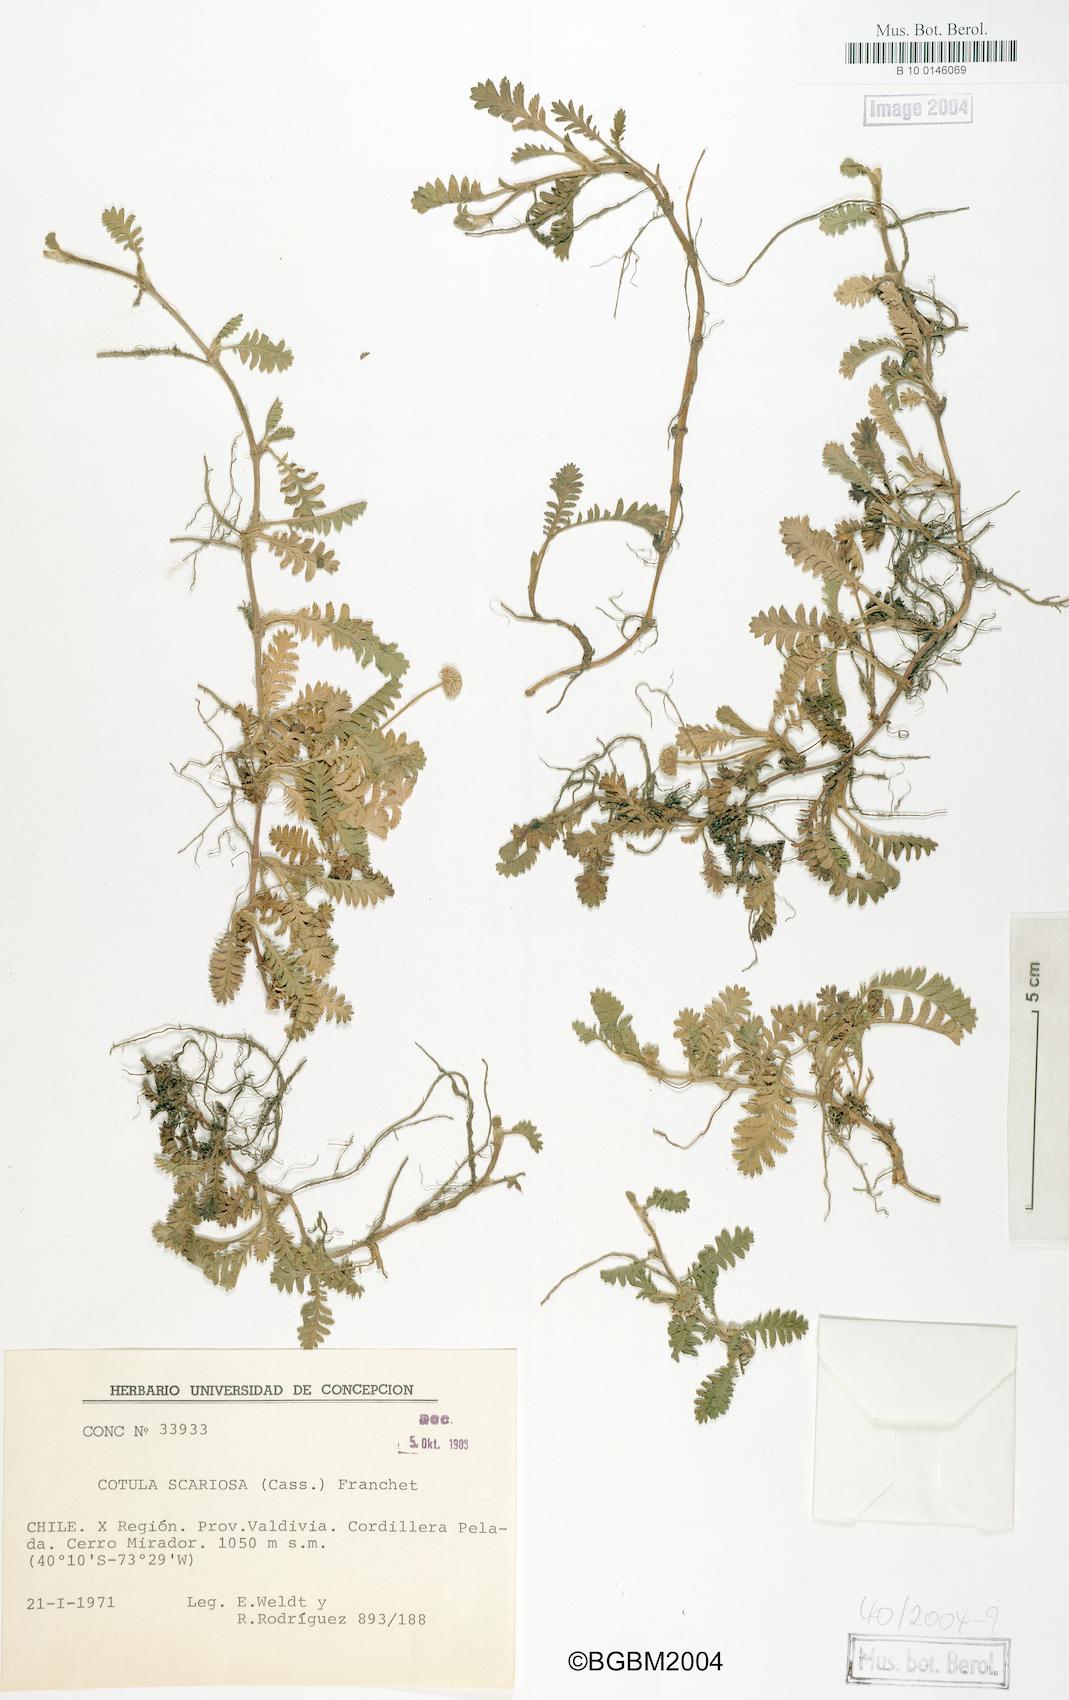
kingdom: Plantae
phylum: Tracheophyta
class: Magnoliopsida
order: Asterales
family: Asteraceae
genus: Leptinella
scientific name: Leptinella scariosa
